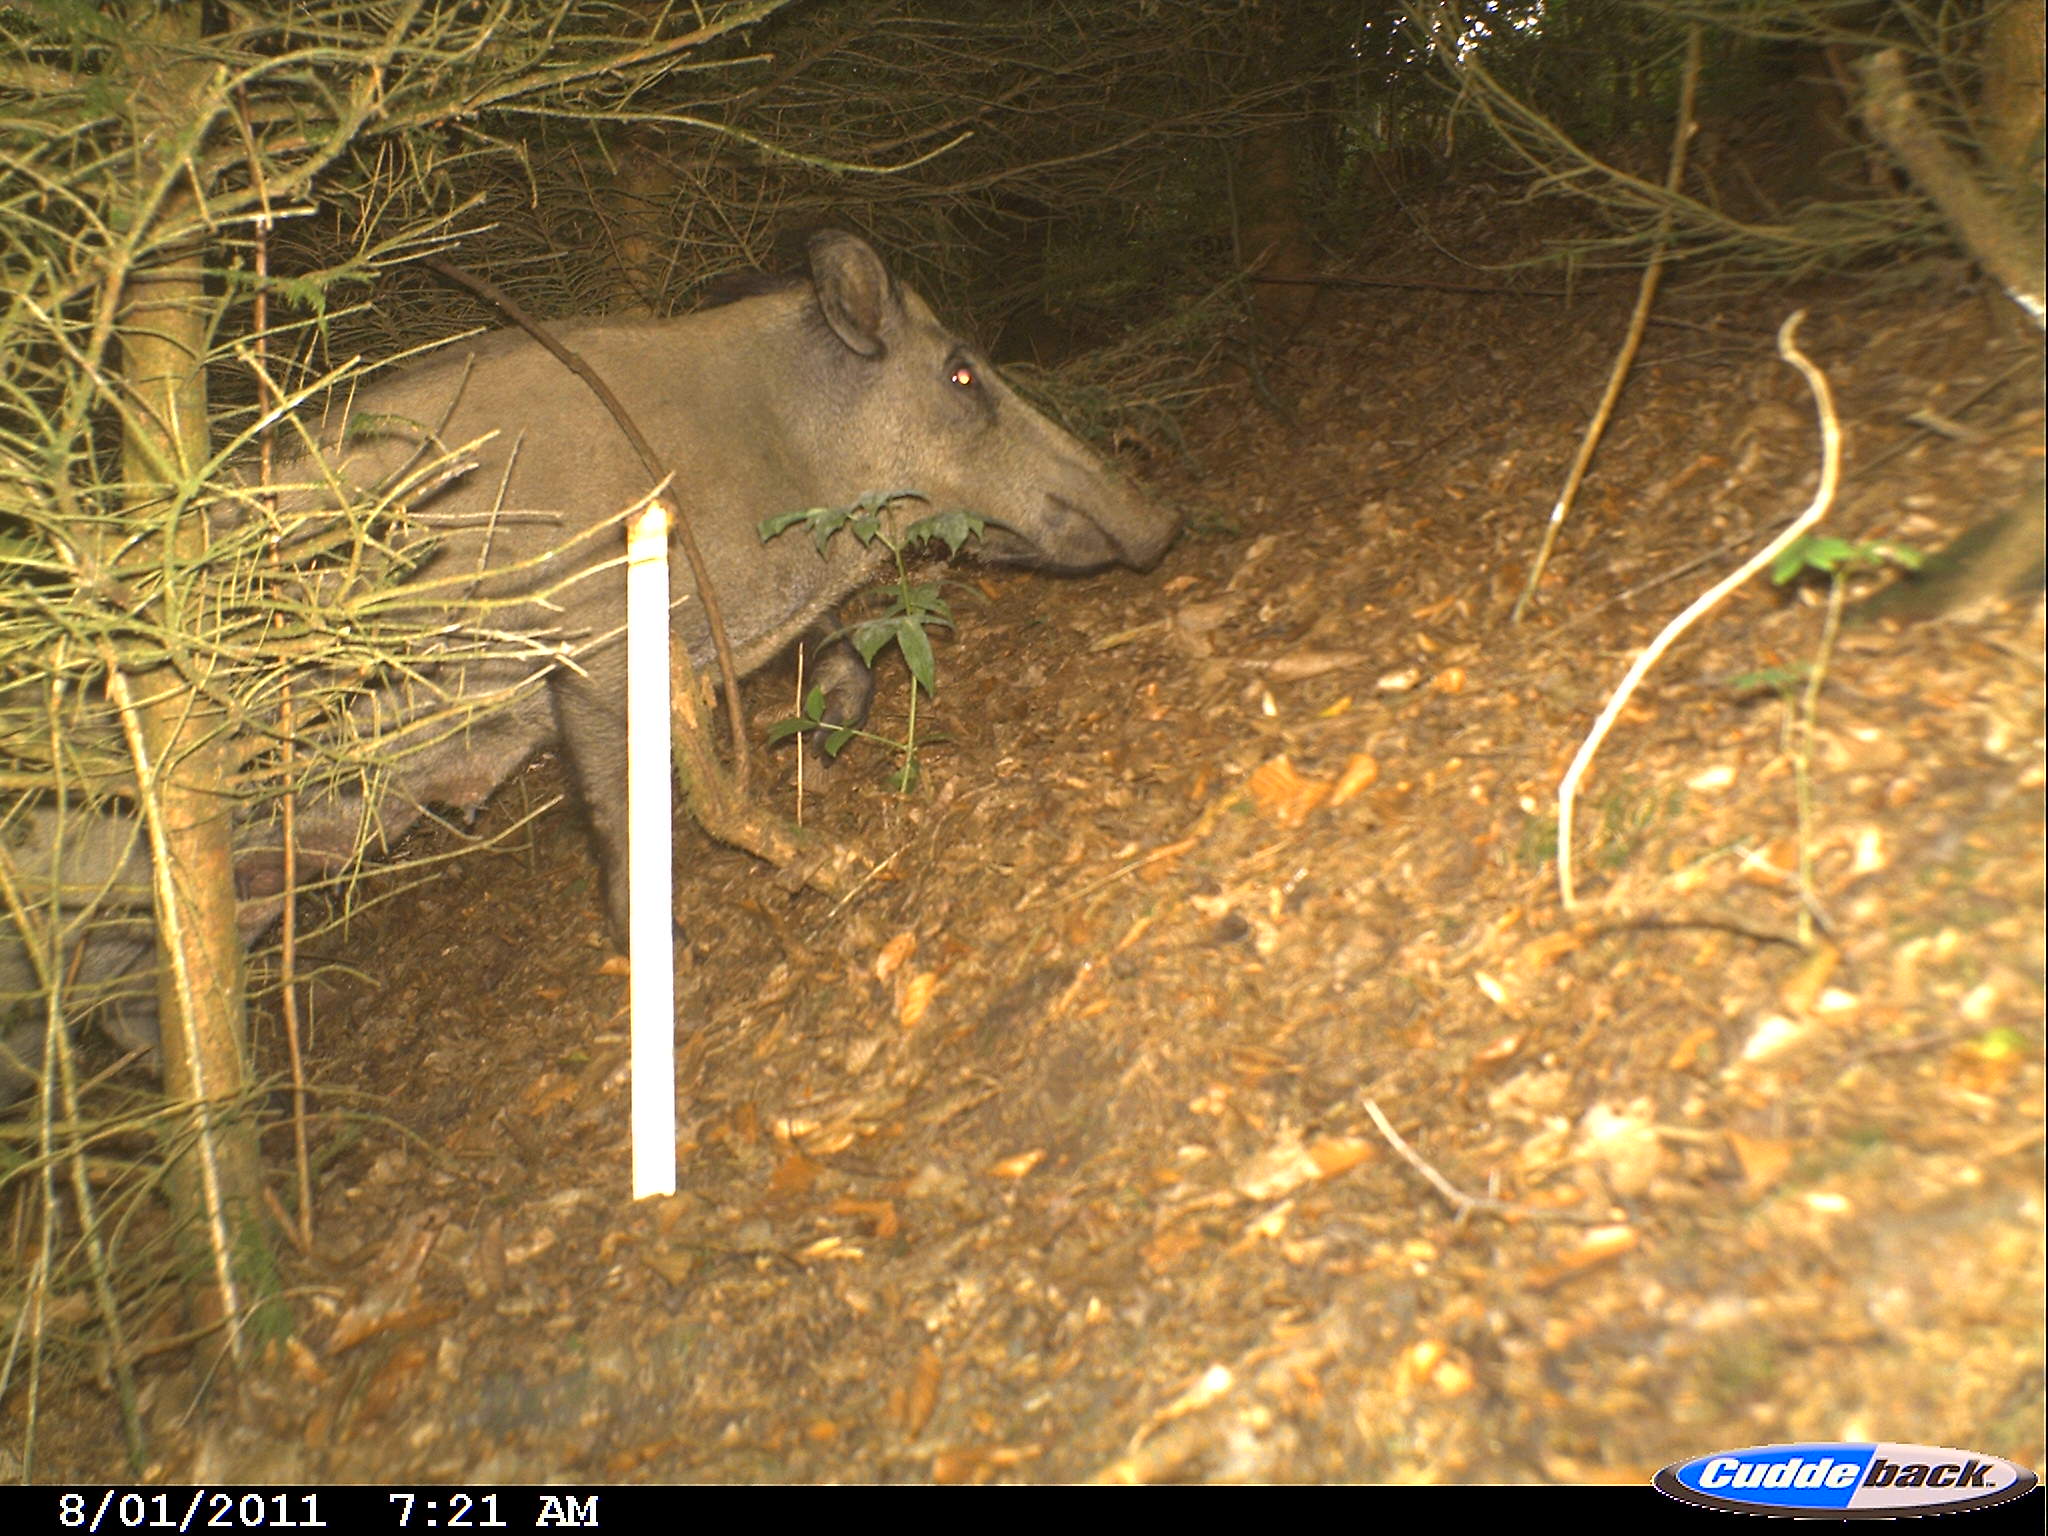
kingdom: Animalia
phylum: Chordata
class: Mammalia
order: Artiodactyla
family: Suidae
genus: Sus
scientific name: Sus scrofa
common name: Wild boar
